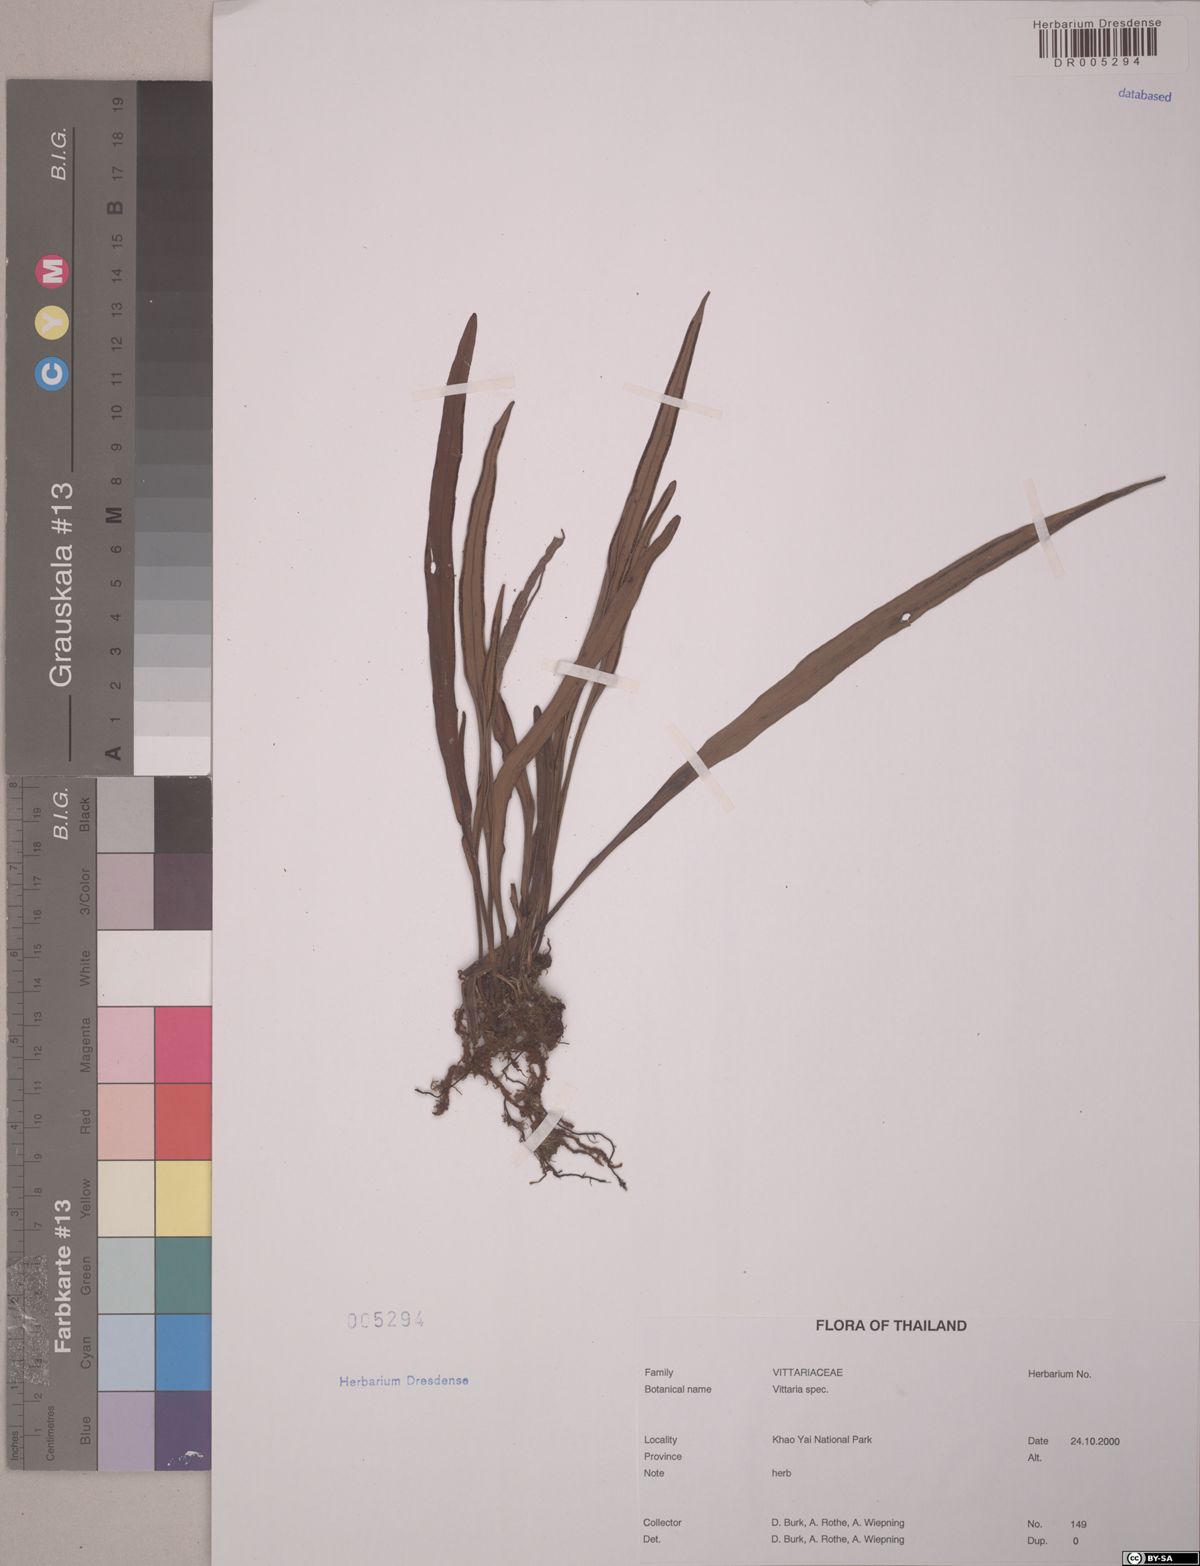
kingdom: Plantae
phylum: Tracheophyta
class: Polypodiopsida
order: Polypodiales
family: Pteridaceae
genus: Vittaria
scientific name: Vittaria
